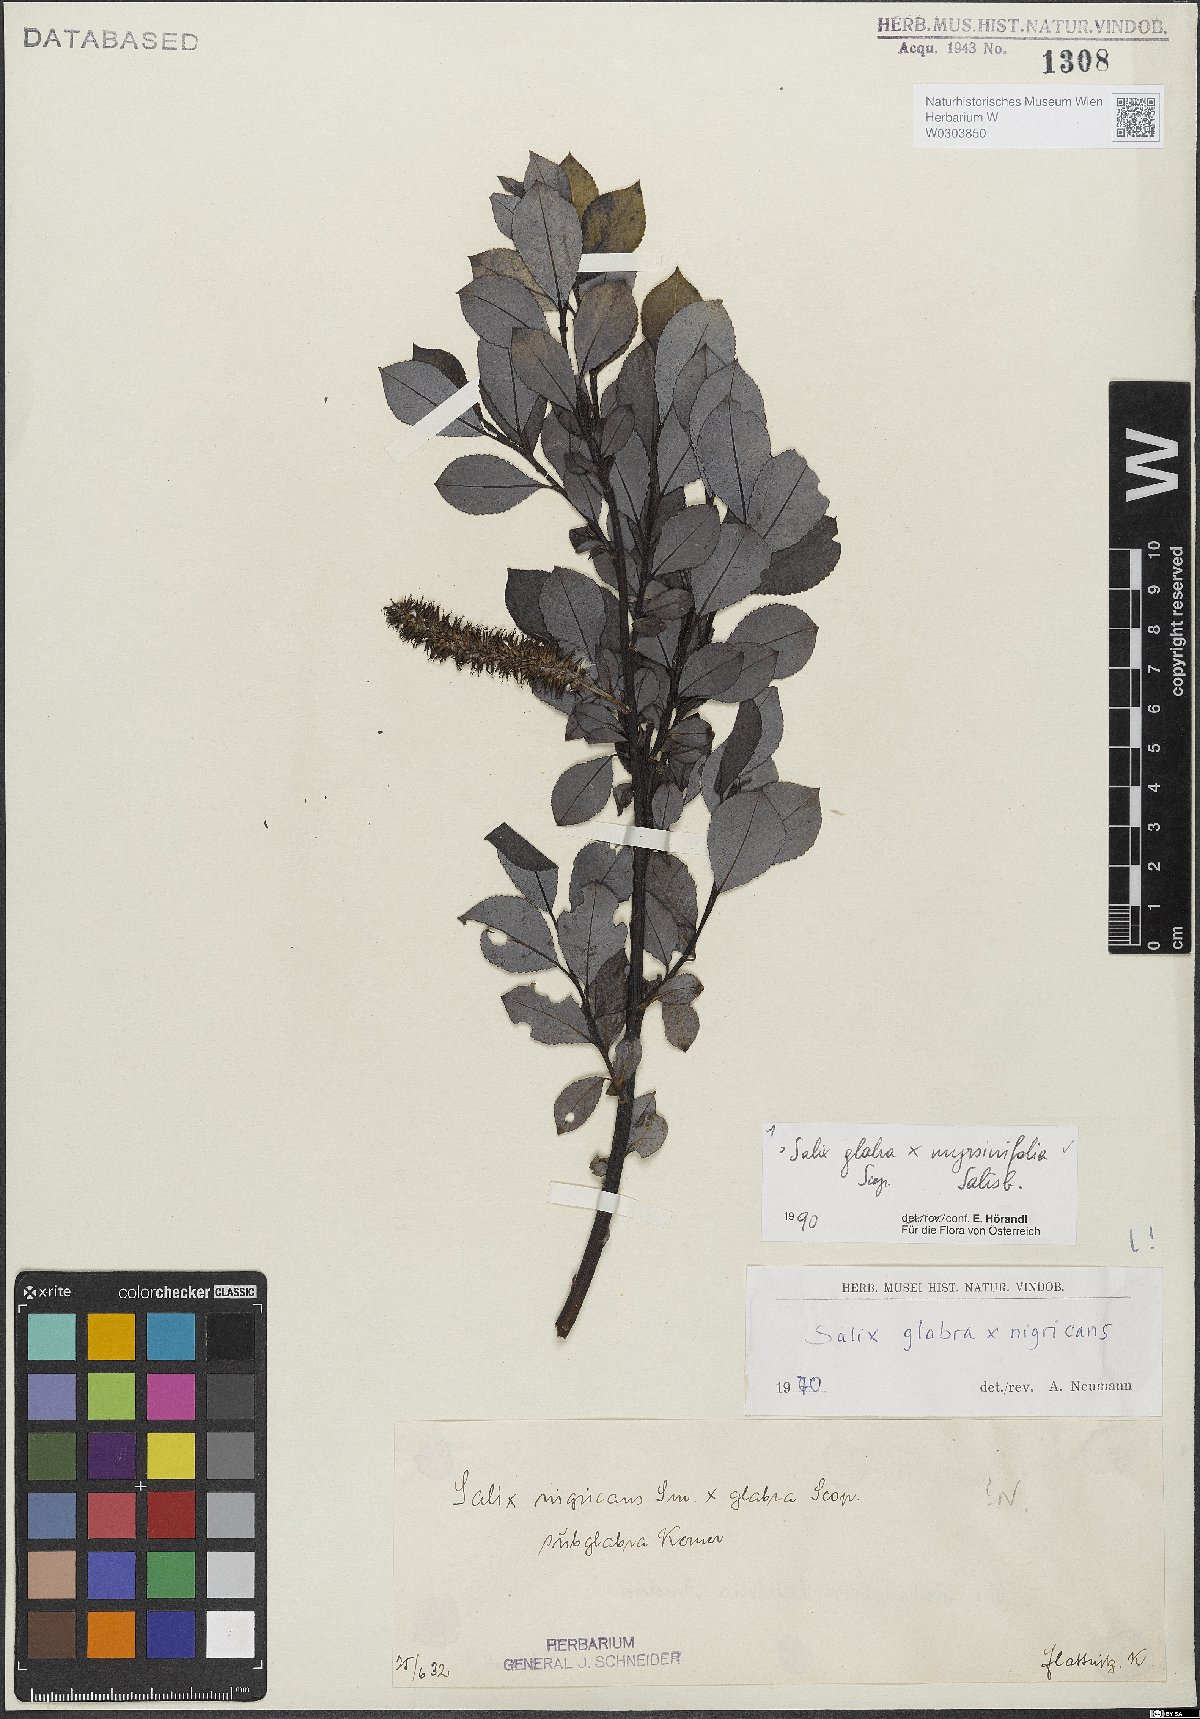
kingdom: Plantae
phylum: Tracheophyta
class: Magnoliopsida
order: Malpighiales
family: Salicaceae
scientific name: Salicaceae
